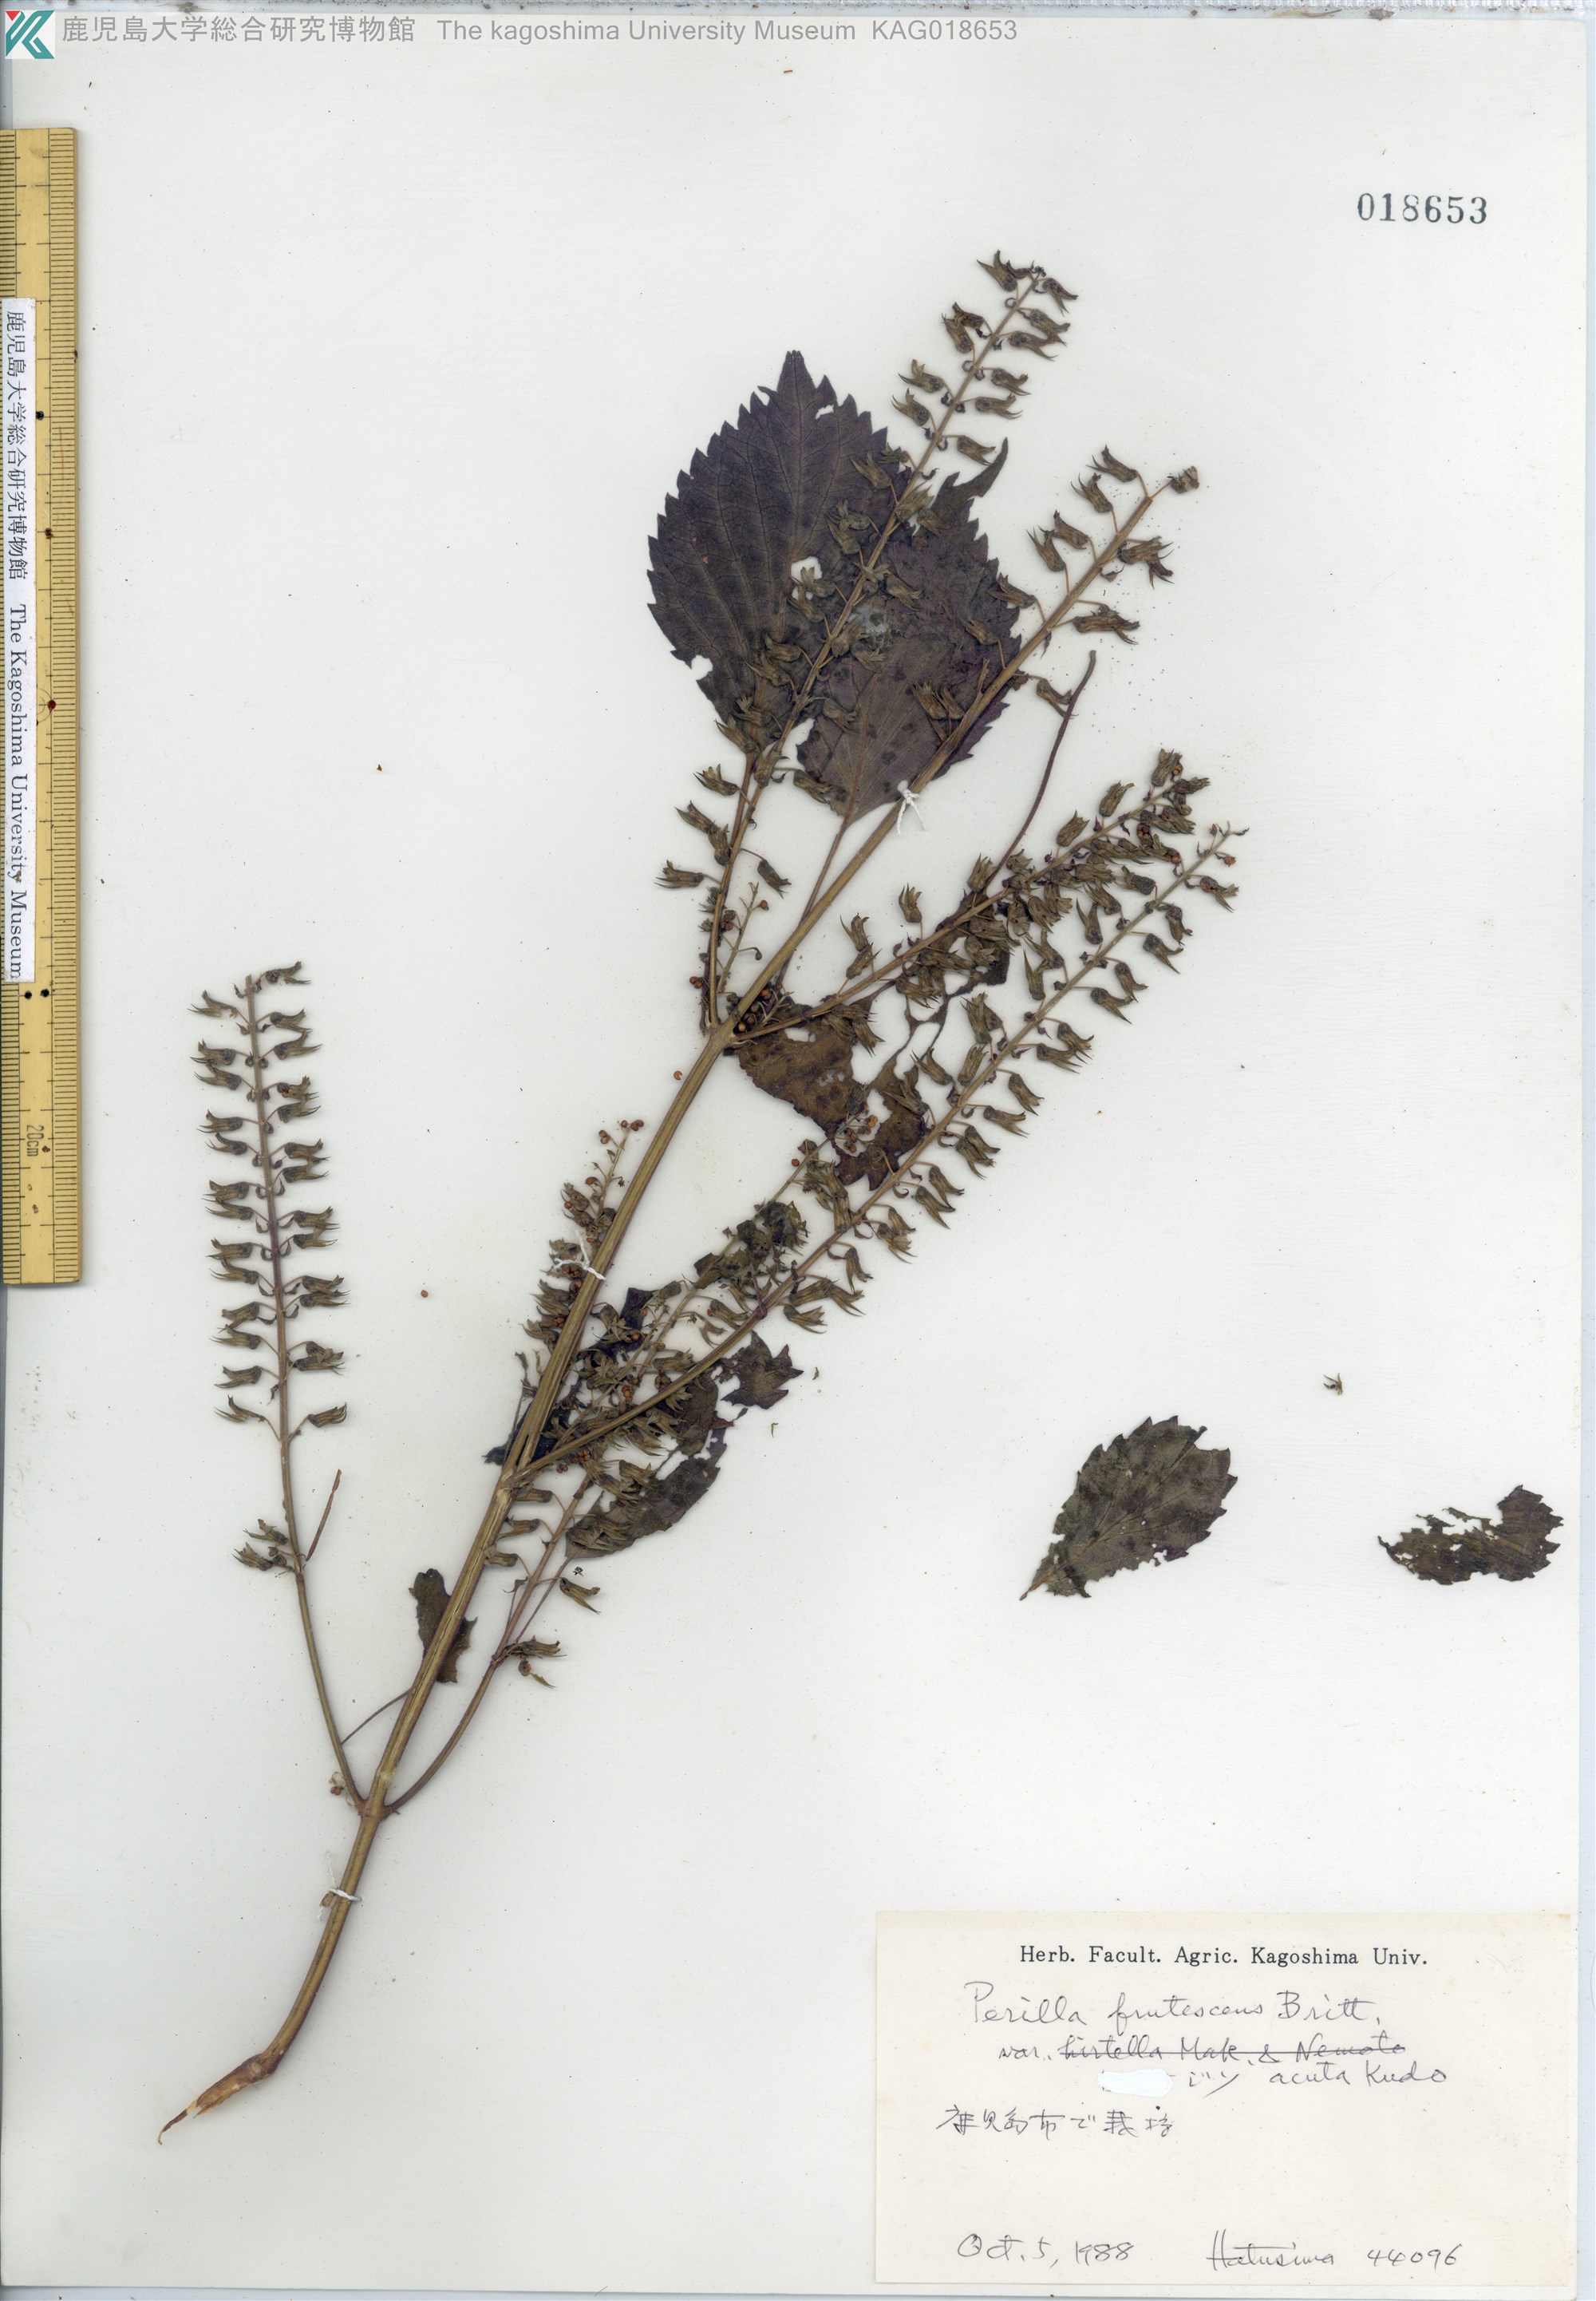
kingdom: Plantae
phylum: Tracheophyta
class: Magnoliopsida
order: Lamiales
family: Lamiaceae
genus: Perilla
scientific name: Perilla frutescens
